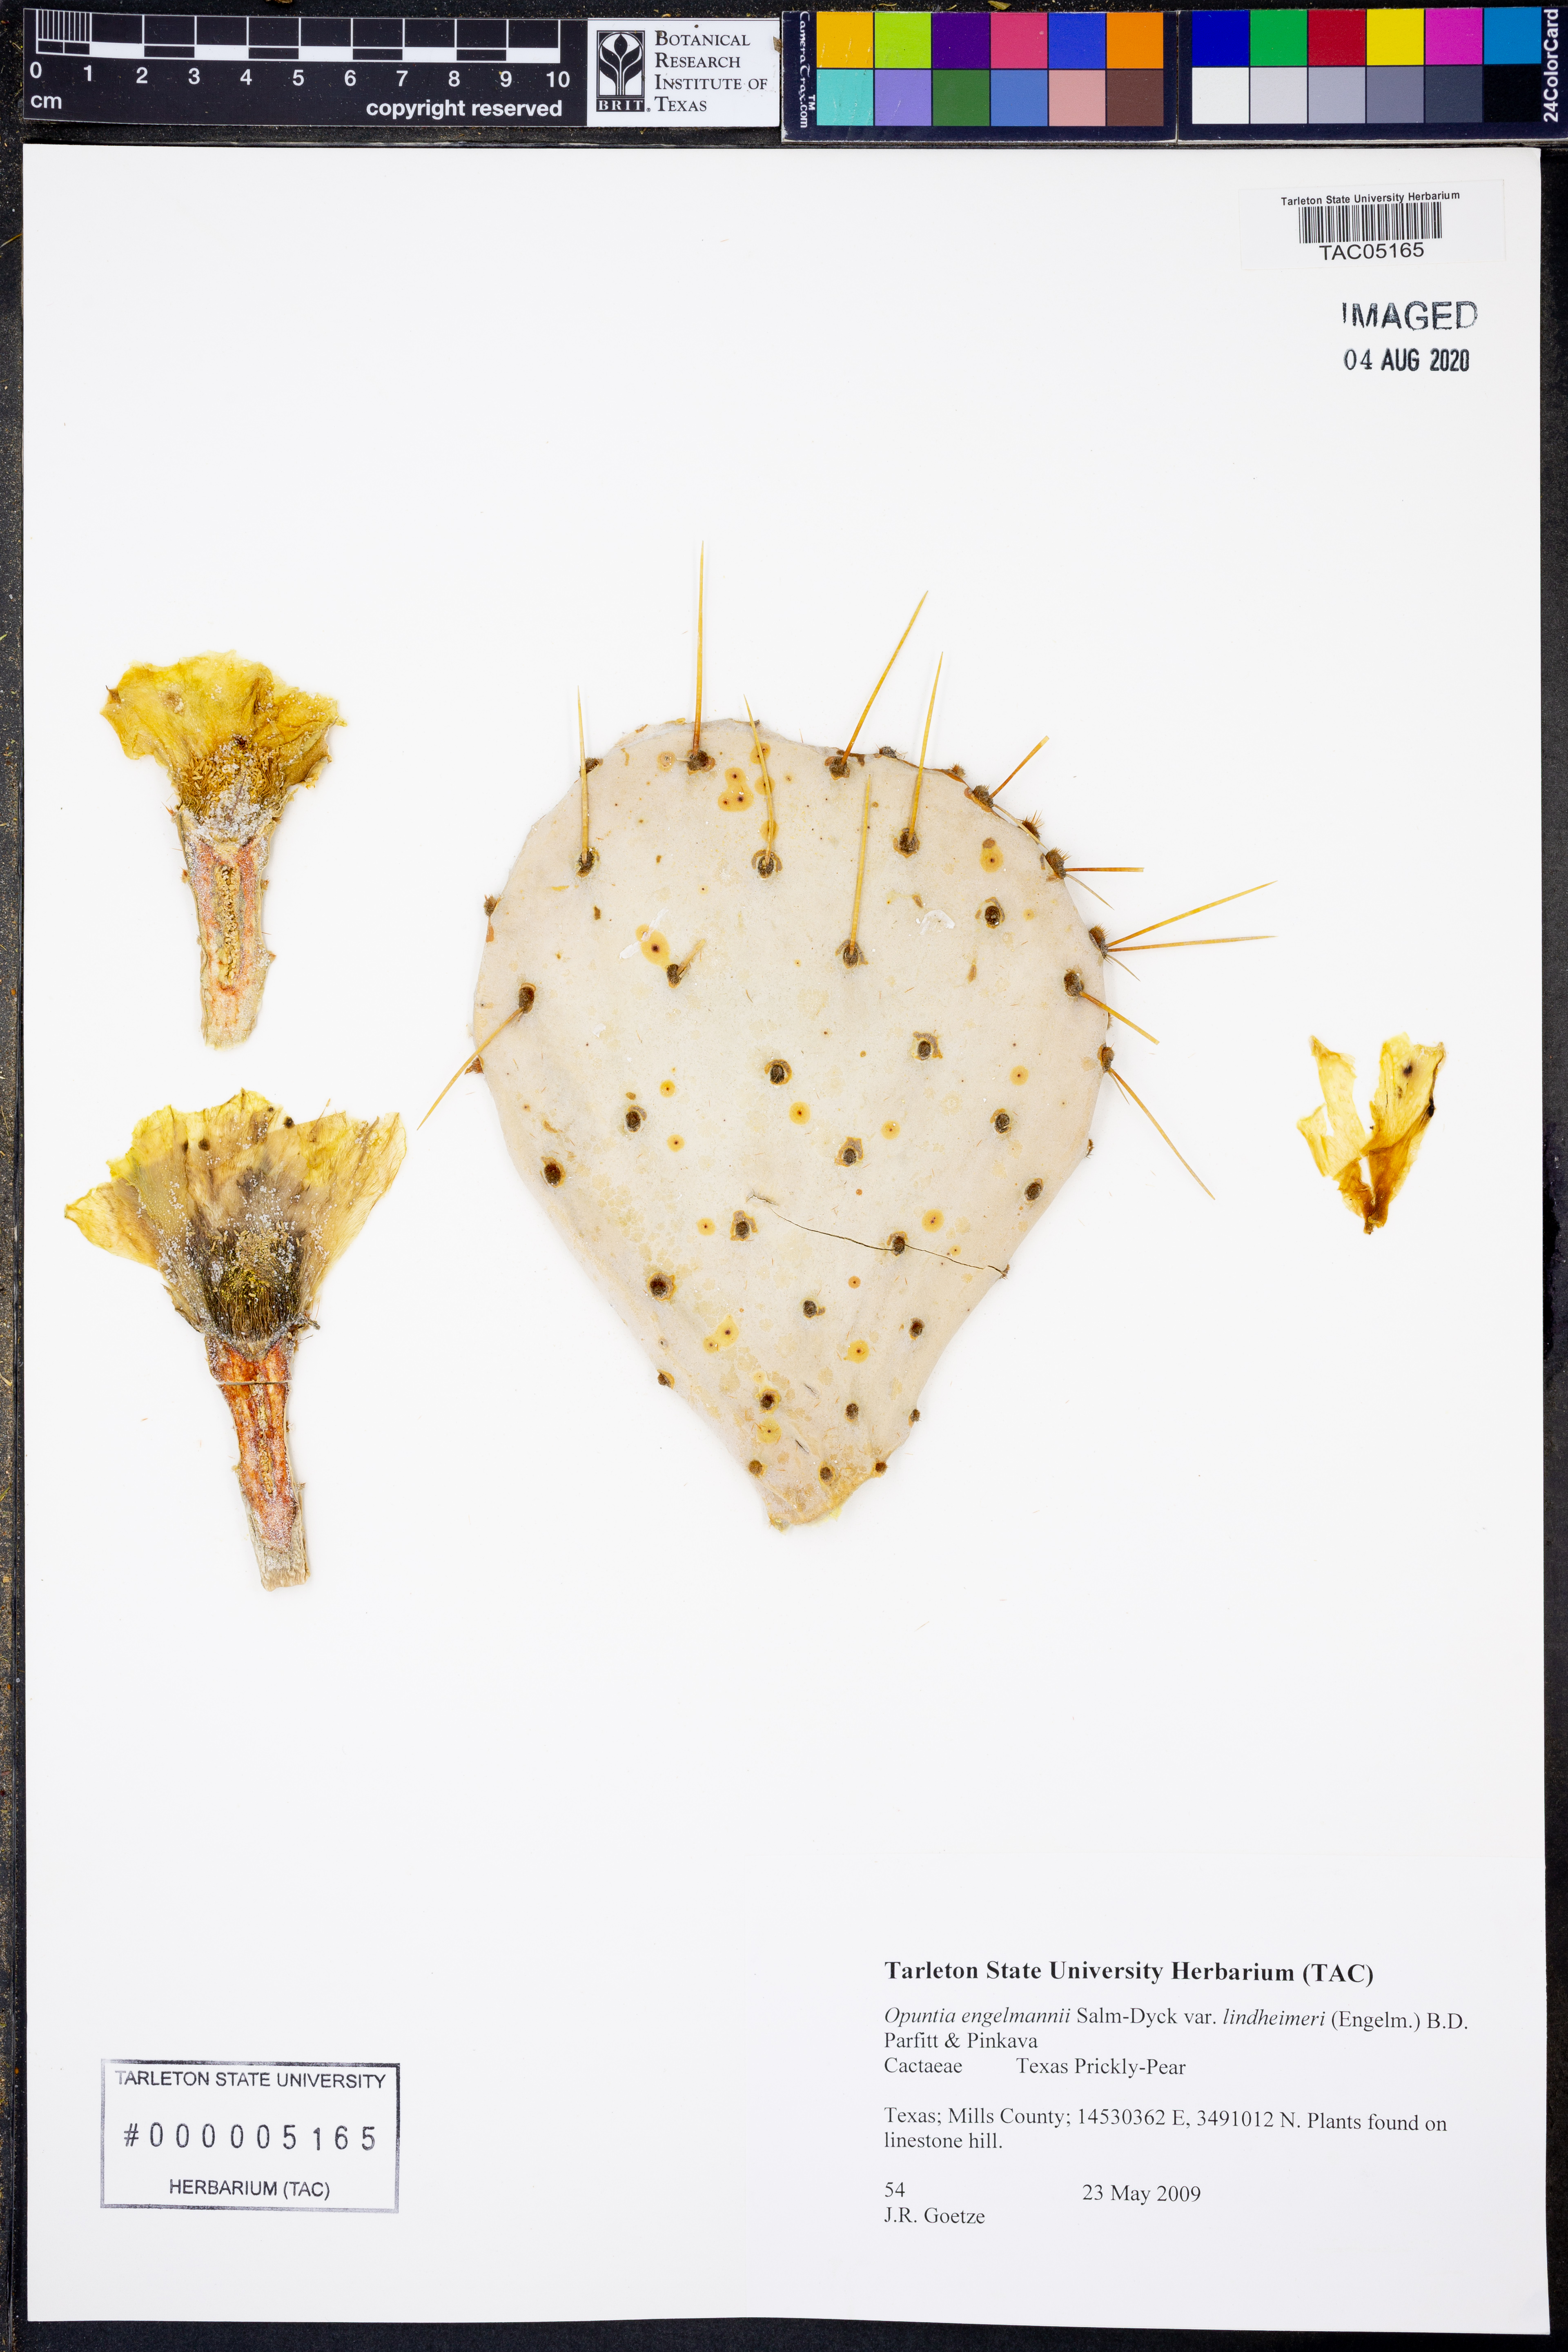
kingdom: Plantae
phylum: Tracheophyta
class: Magnoliopsida
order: Caryophyllales
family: Cactaceae
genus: Opuntia
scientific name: Opuntia engelmannii
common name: Cactus-apple
